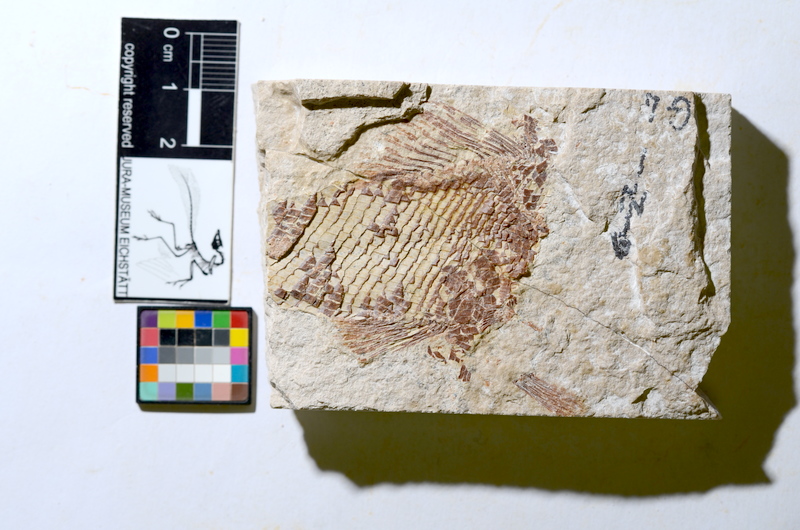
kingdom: Animalia
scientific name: Animalia
